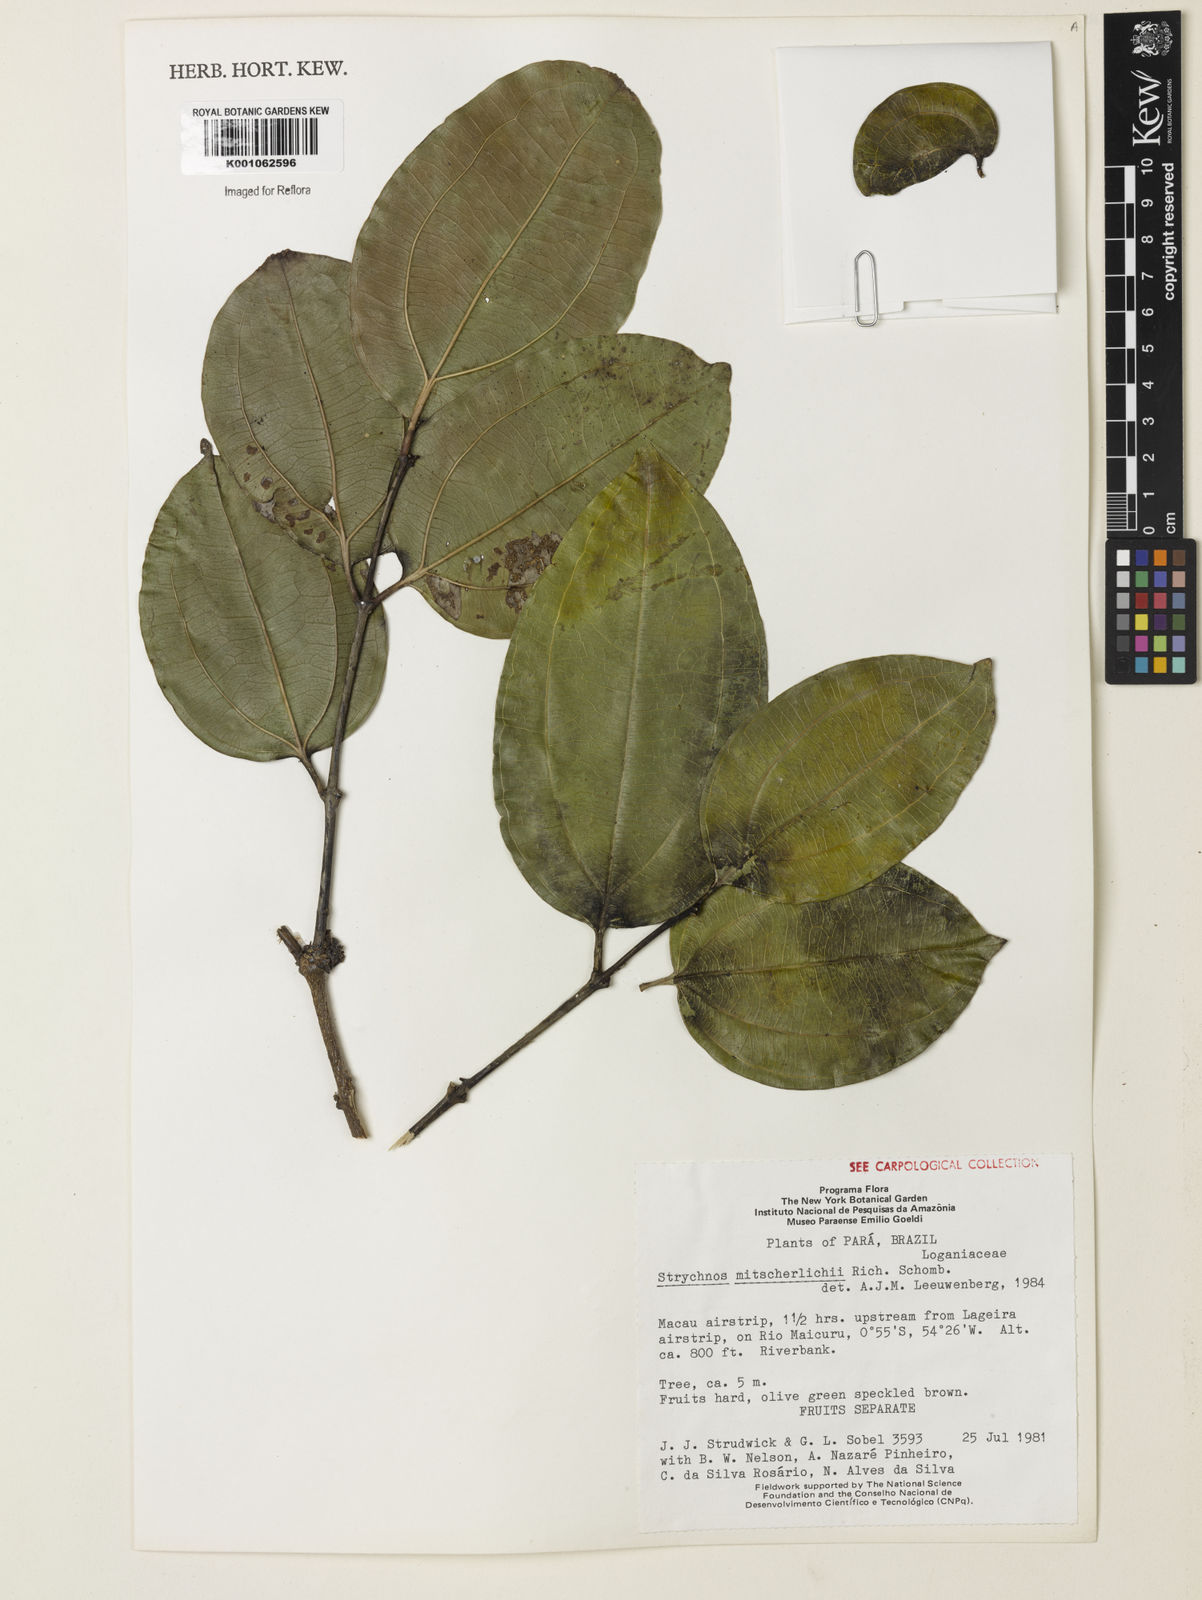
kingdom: Plantae
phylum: Tracheophyta
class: Magnoliopsida
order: Gentianales
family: Loganiaceae
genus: Strychnos
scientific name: Strychnos mitscherlichii
